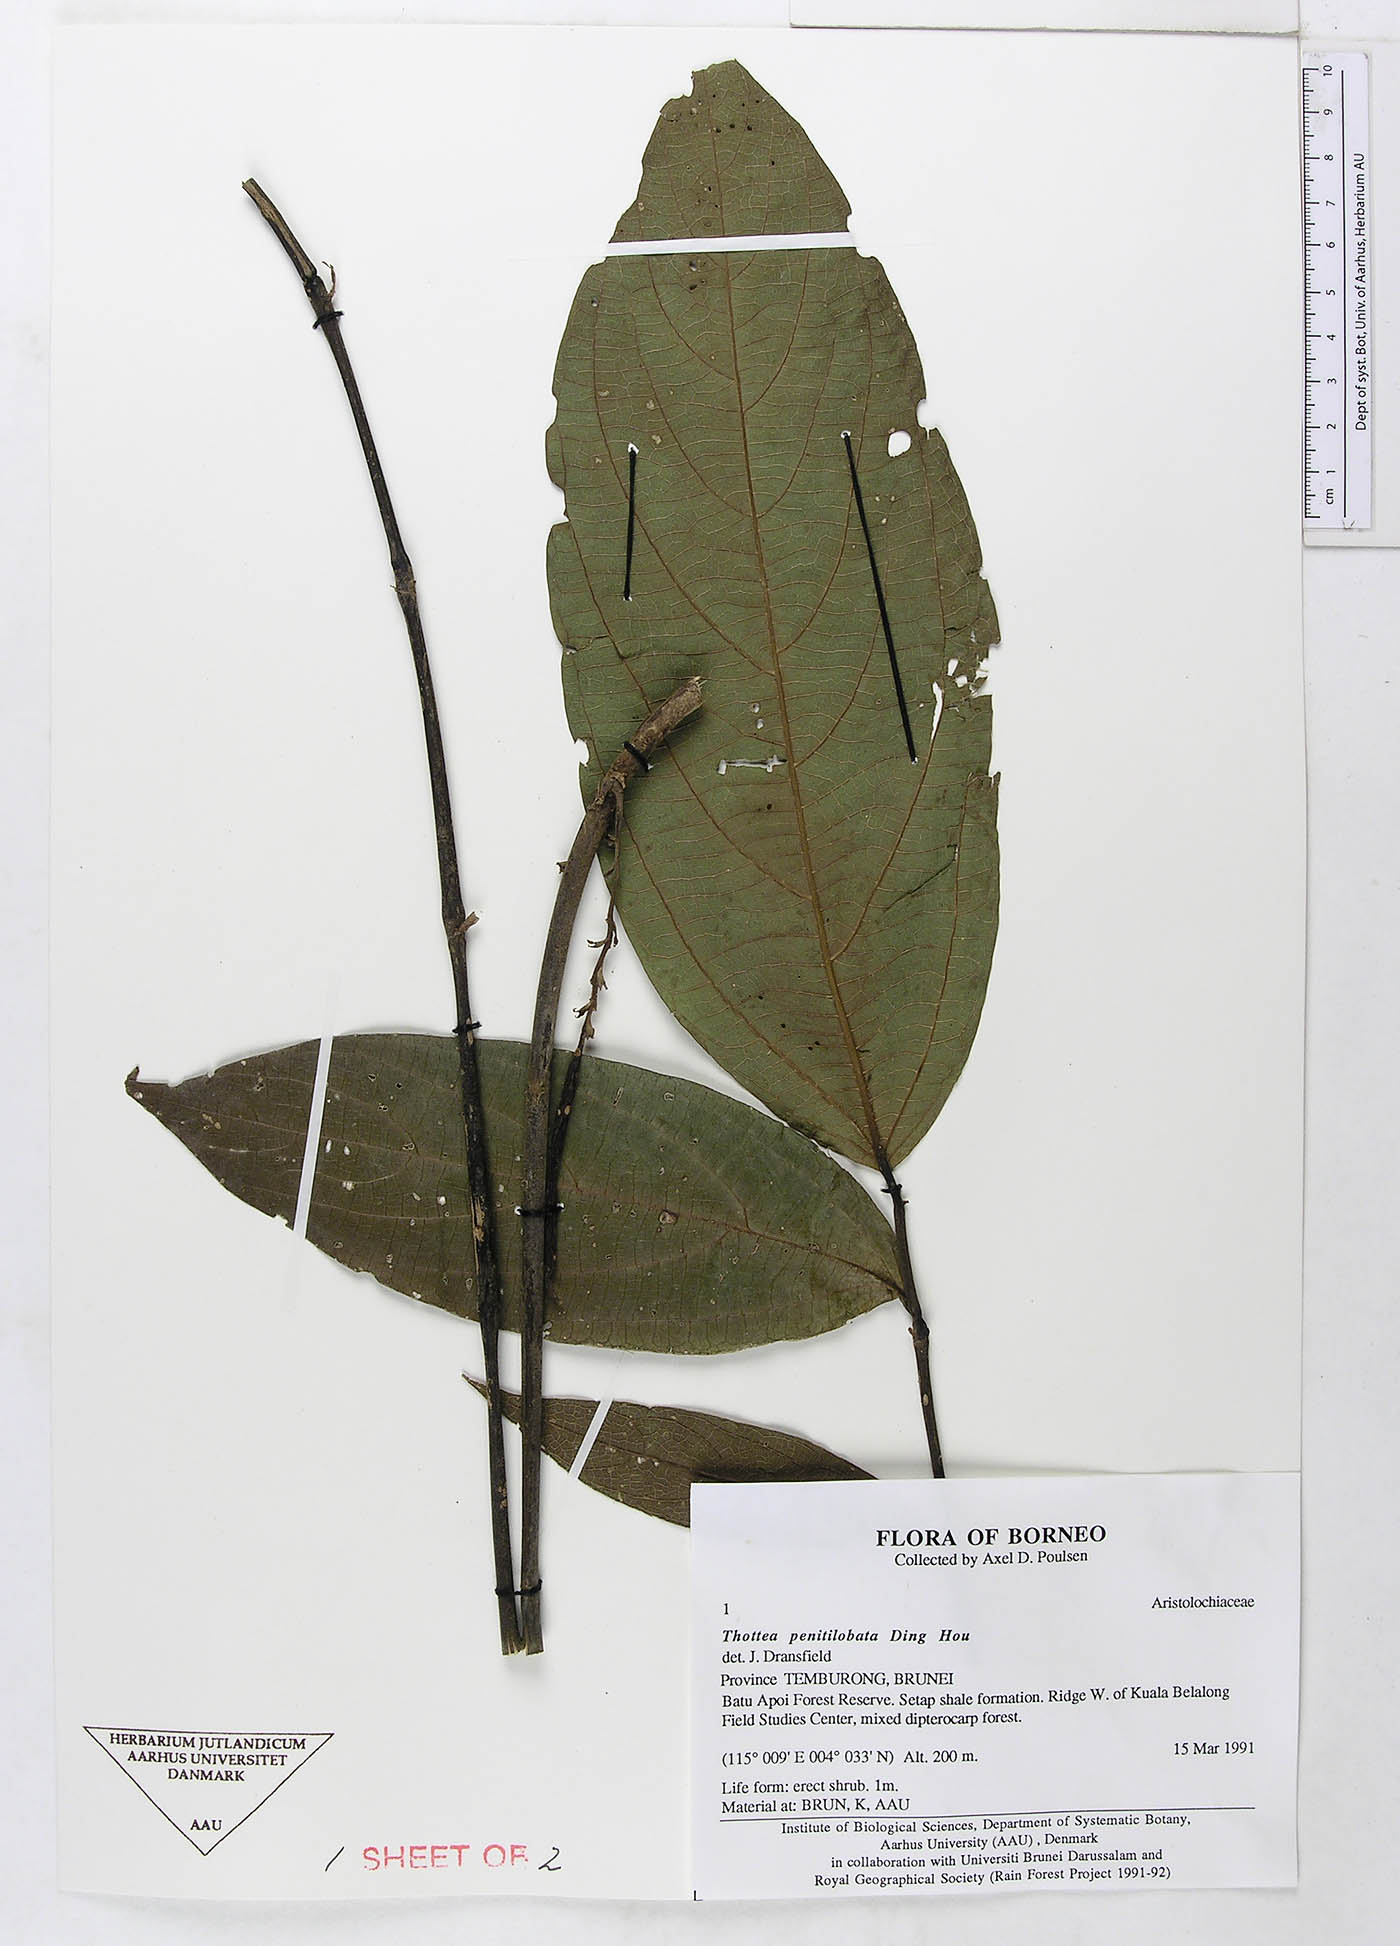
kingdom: Plantae
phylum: Tracheophyta
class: Magnoliopsida
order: Piperales
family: Aristolochiaceae
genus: Thottea
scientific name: Thottea penitilobata
